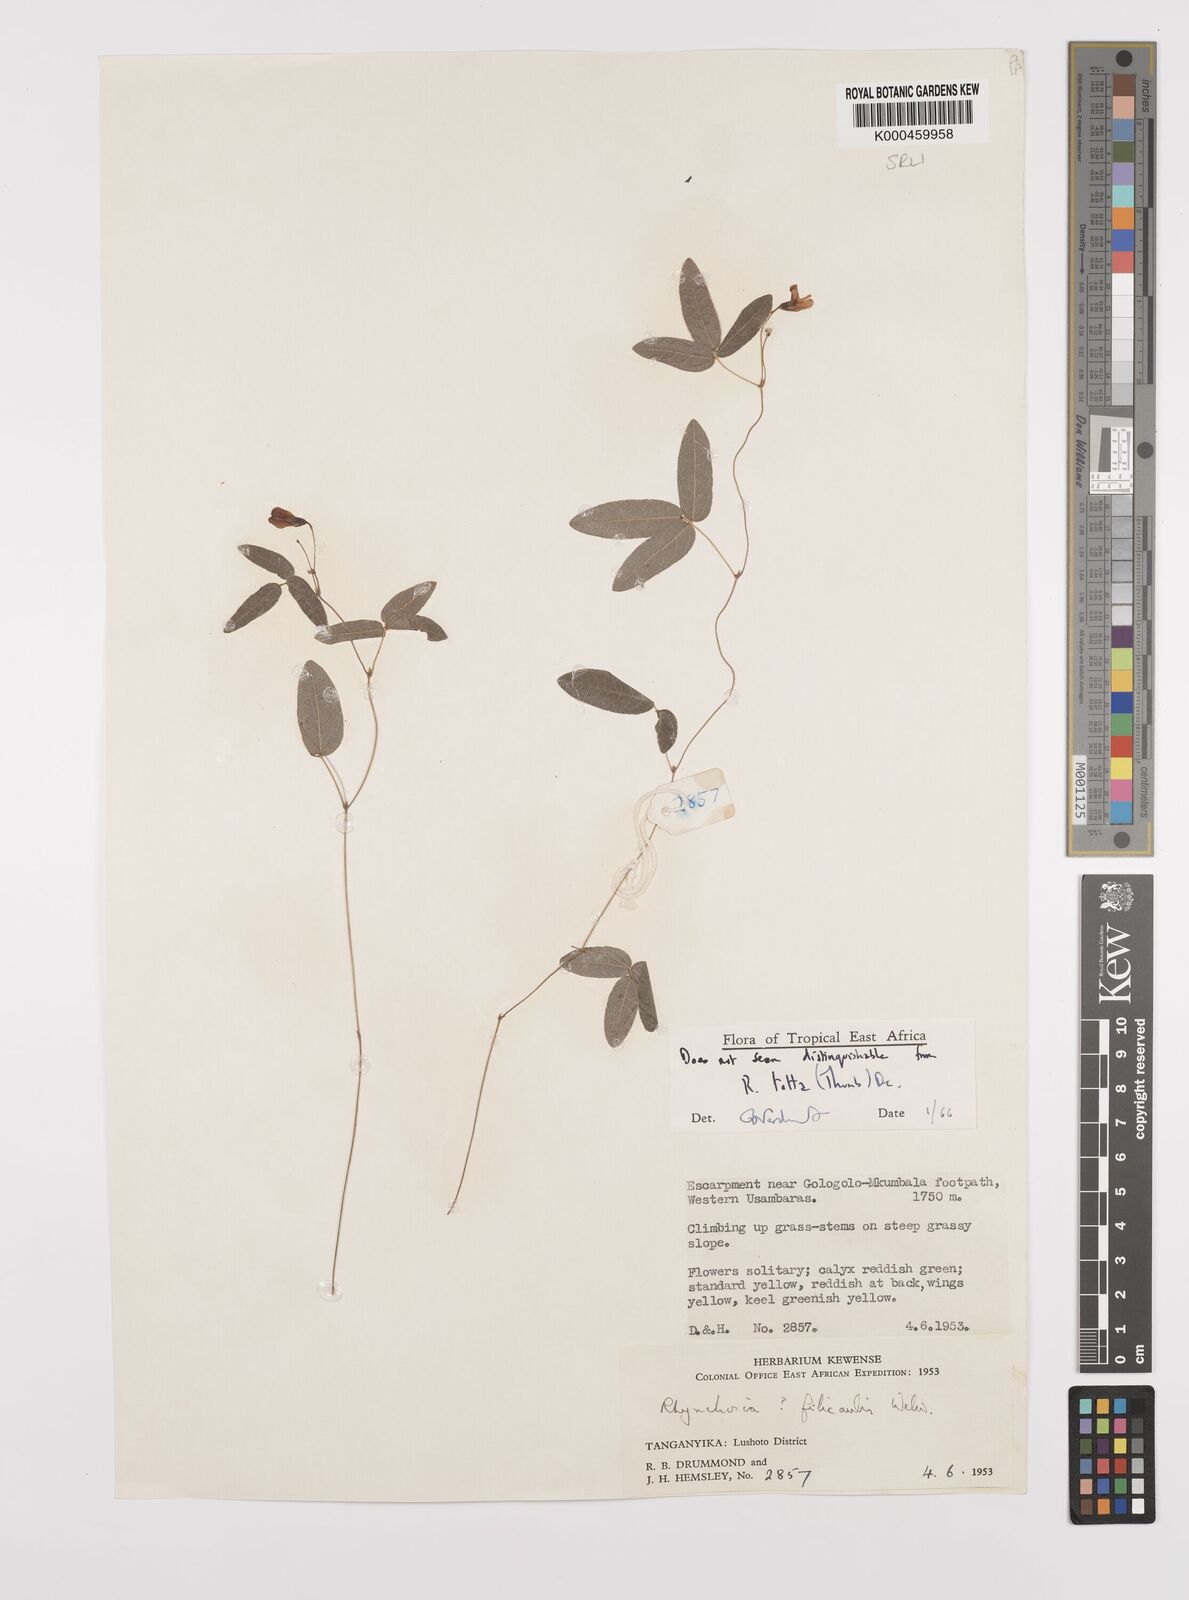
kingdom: Plantae
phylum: Tracheophyta
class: Magnoliopsida
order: Fabales
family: Fabaceae
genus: Rhynchosia
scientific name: Rhynchosia totta
